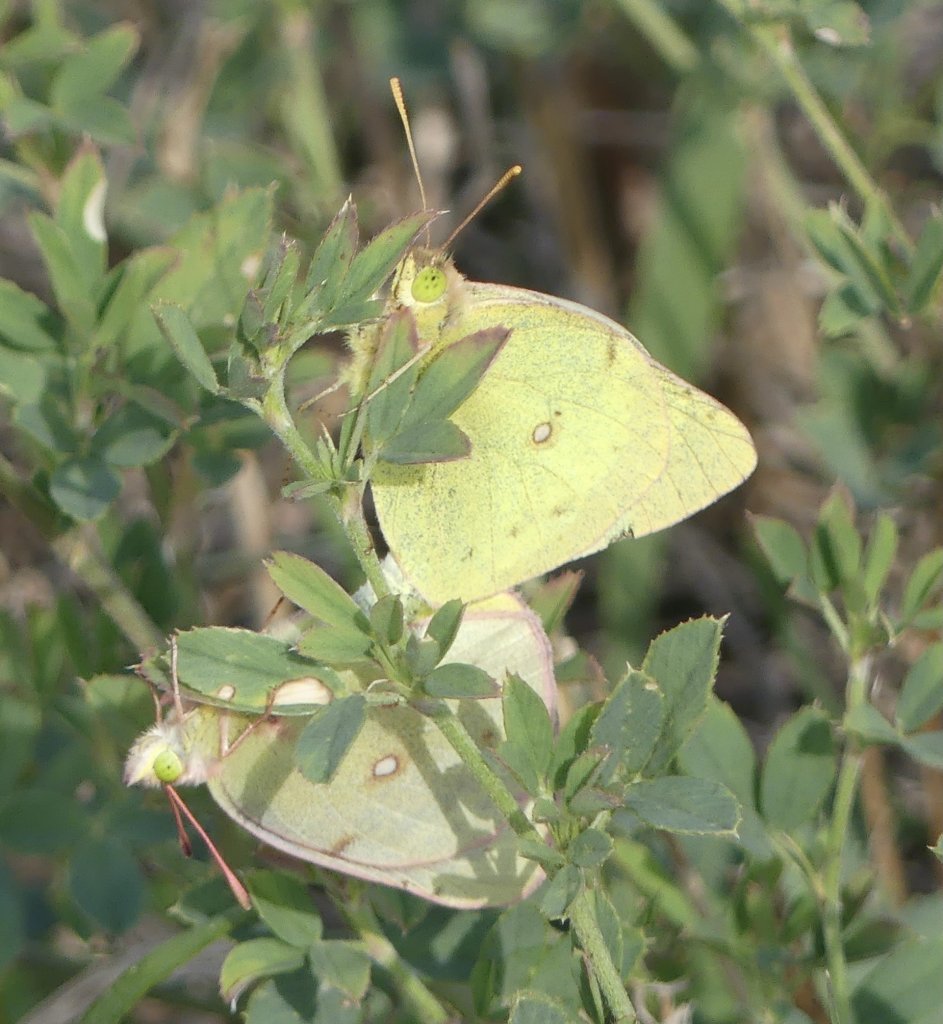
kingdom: Animalia
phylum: Arthropoda
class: Insecta
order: Lepidoptera
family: Pieridae
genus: Colias
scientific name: Colias philodice
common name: Clouded Sulphur
